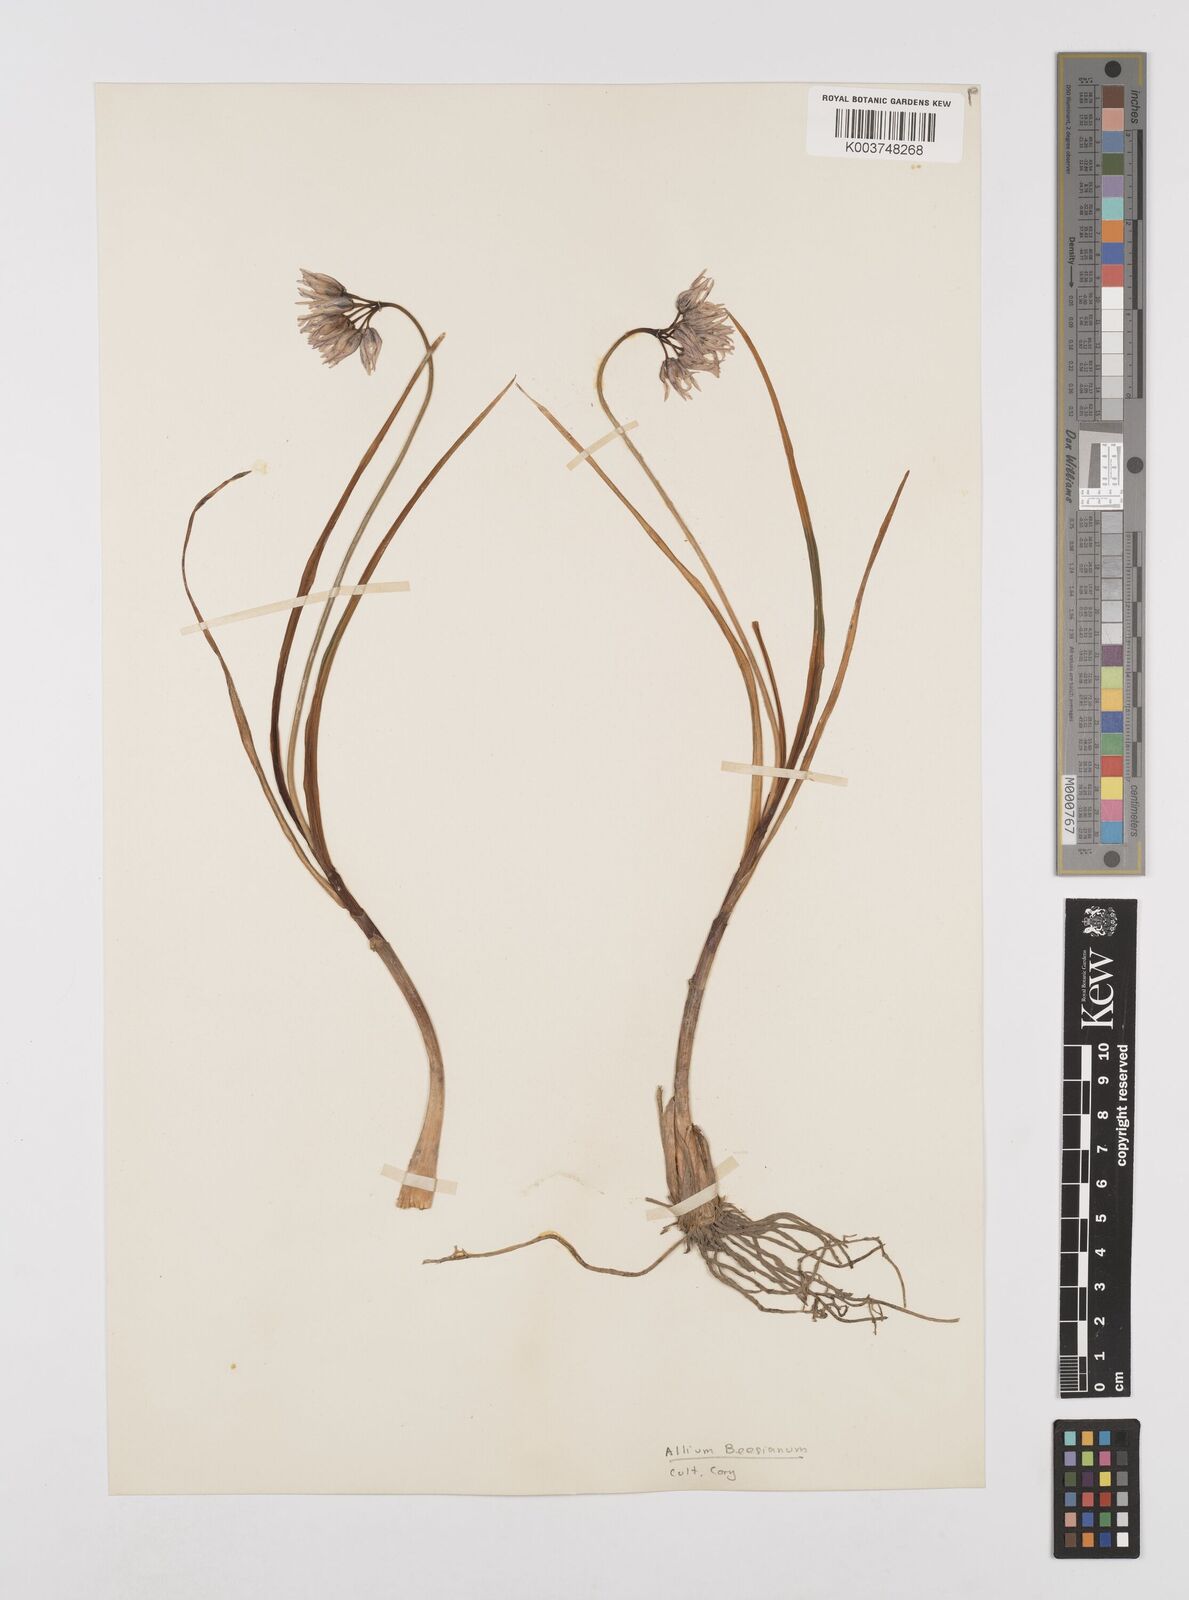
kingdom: Plantae
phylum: Tracheophyta
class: Liliopsida
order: Asparagales
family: Amaryllidaceae
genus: Allium
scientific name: Allium
